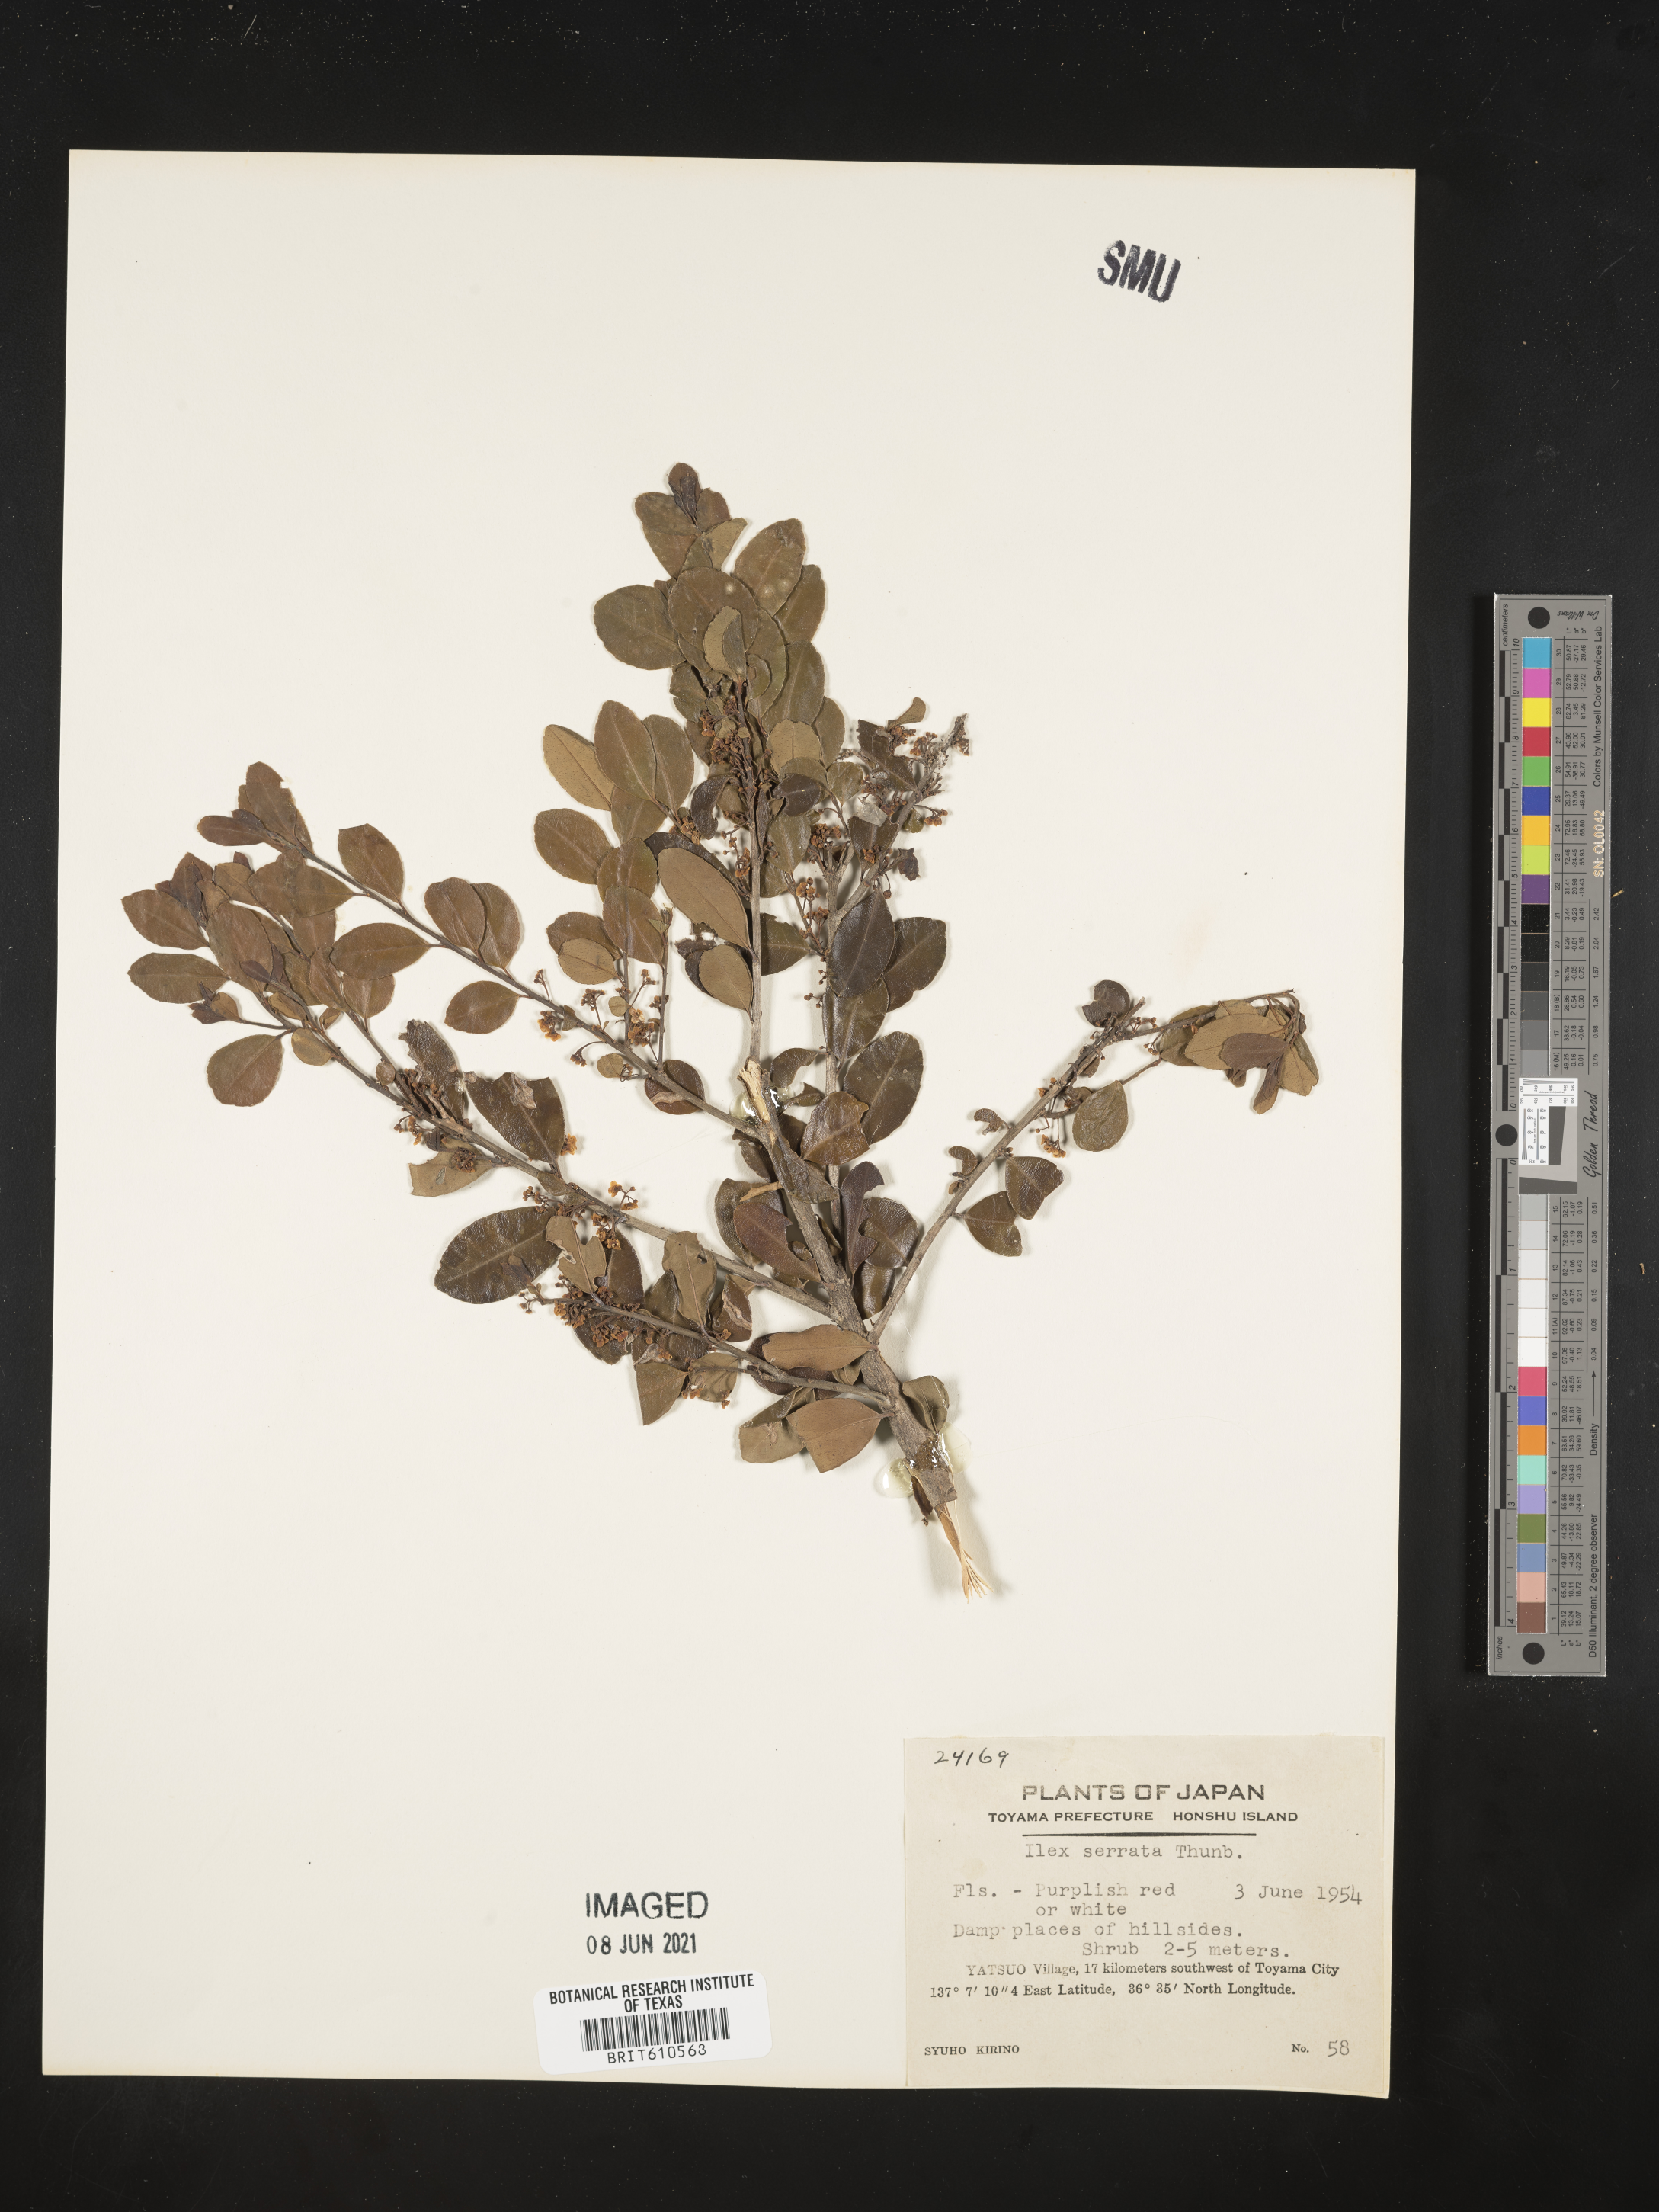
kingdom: Plantae
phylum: Tracheophyta
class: Magnoliopsida
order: Aquifoliales
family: Aquifoliaceae
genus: Ilex
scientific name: Ilex serrata
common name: Japanese winterberry
